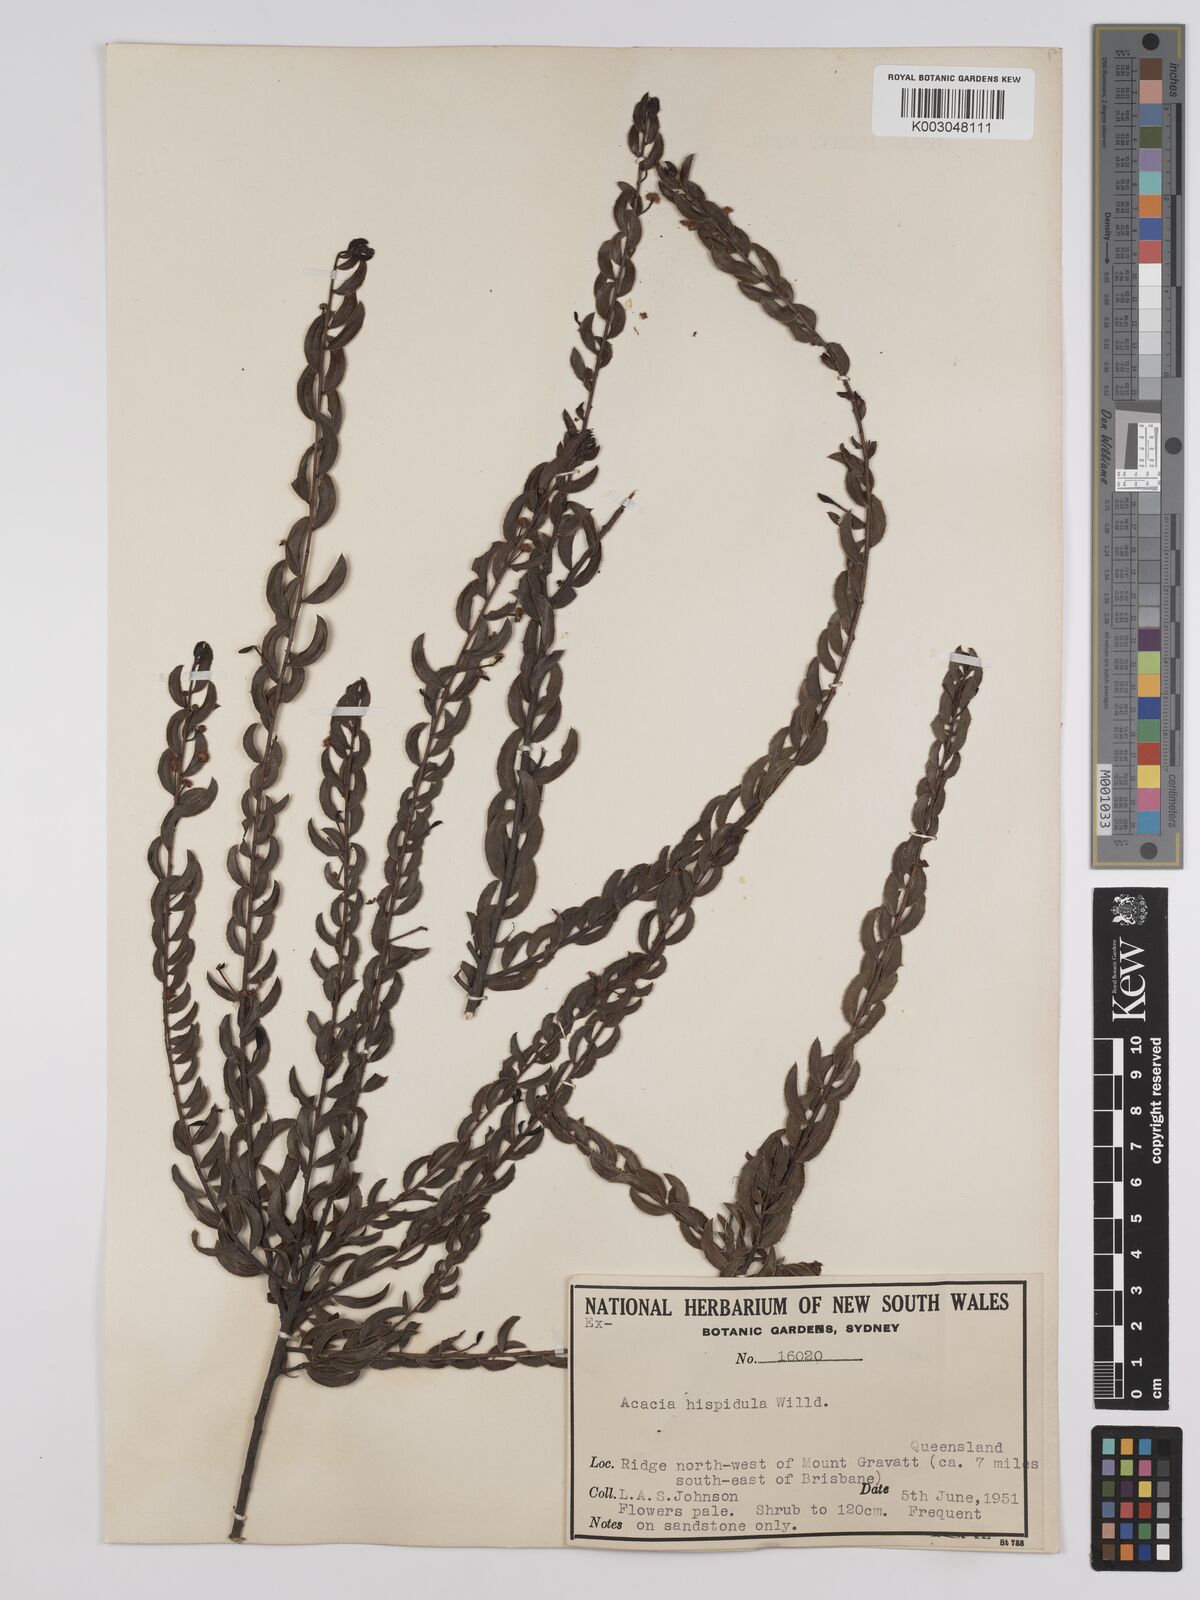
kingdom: Plantae
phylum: Tracheophyta
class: Magnoliopsida
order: Fabales
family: Fabaceae
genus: Acacia
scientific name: Acacia hispidula
